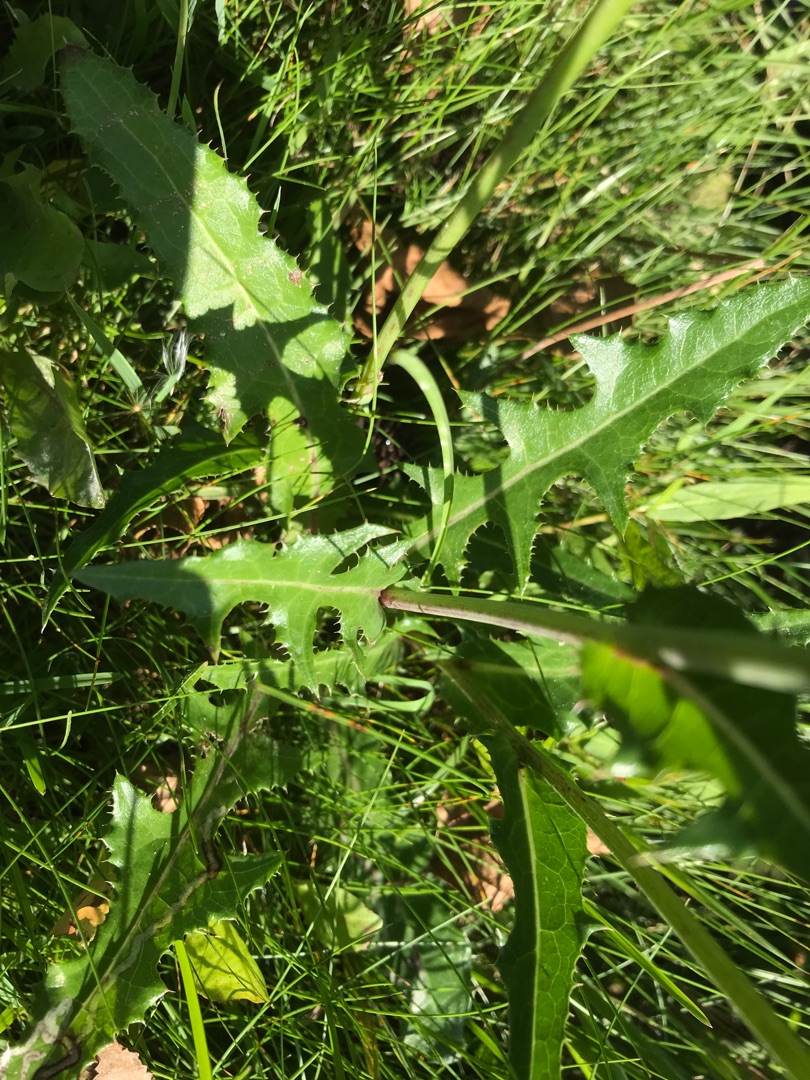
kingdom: Plantae
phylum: Tracheophyta
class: Magnoliopsida
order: Asterales
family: Asteraceae
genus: Sonchus
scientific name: Sonchus arvensis
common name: Ager-svinemælk
